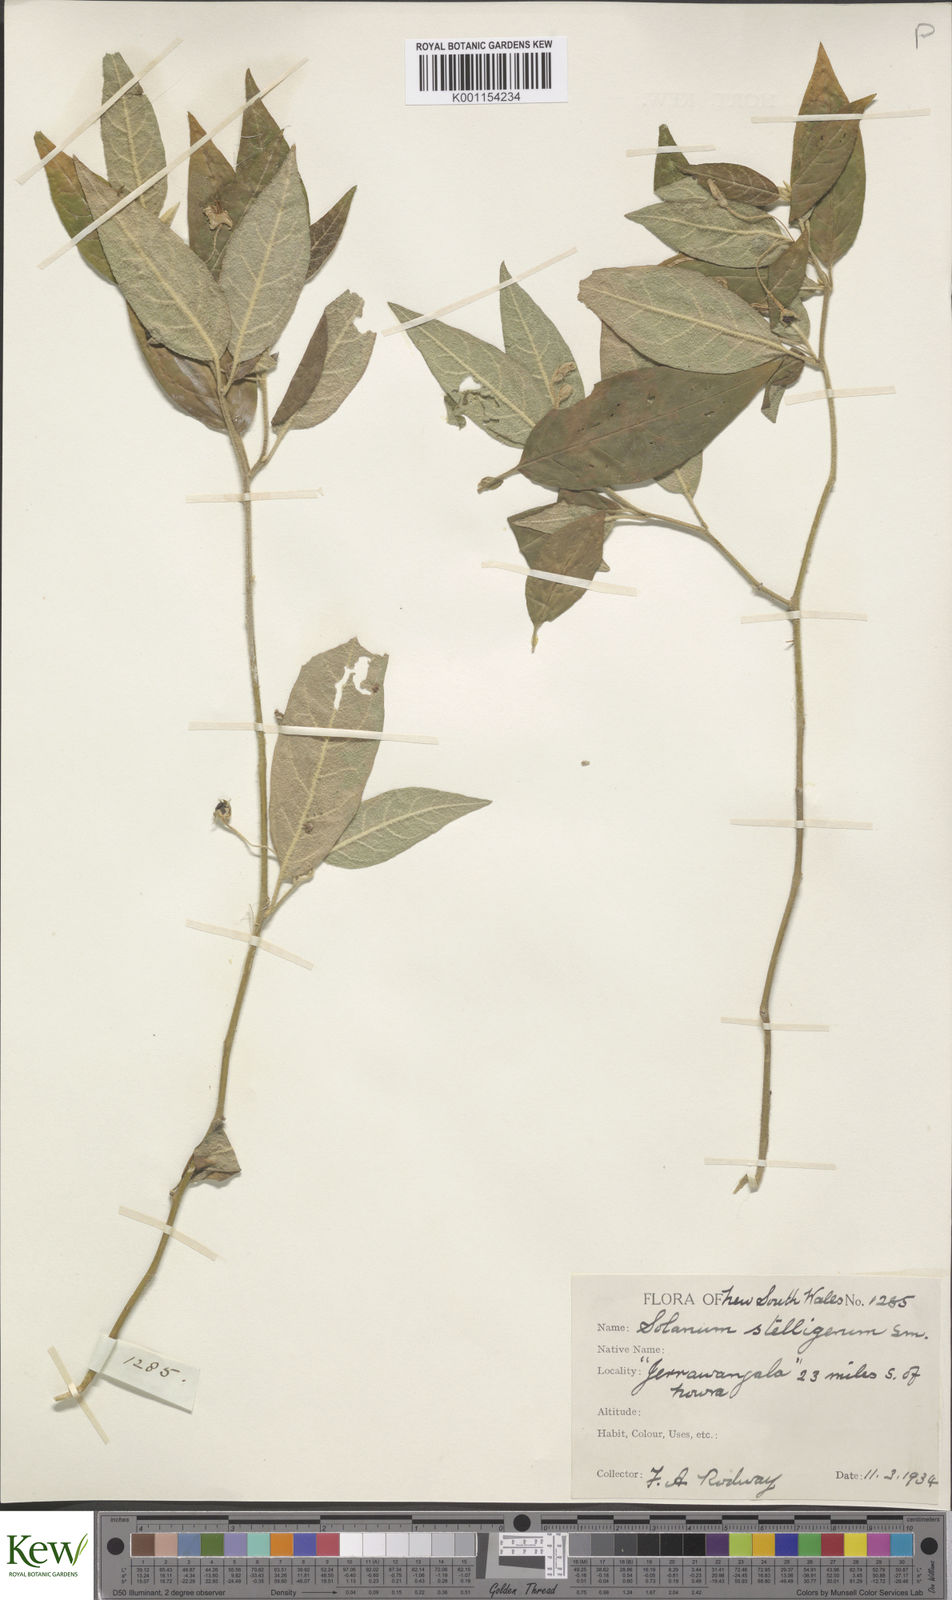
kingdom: Plantae
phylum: Tracheophyta
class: Magnoliopsida
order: Solanales
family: Solanaceae
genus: Solanum
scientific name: Solanum stelligerum
